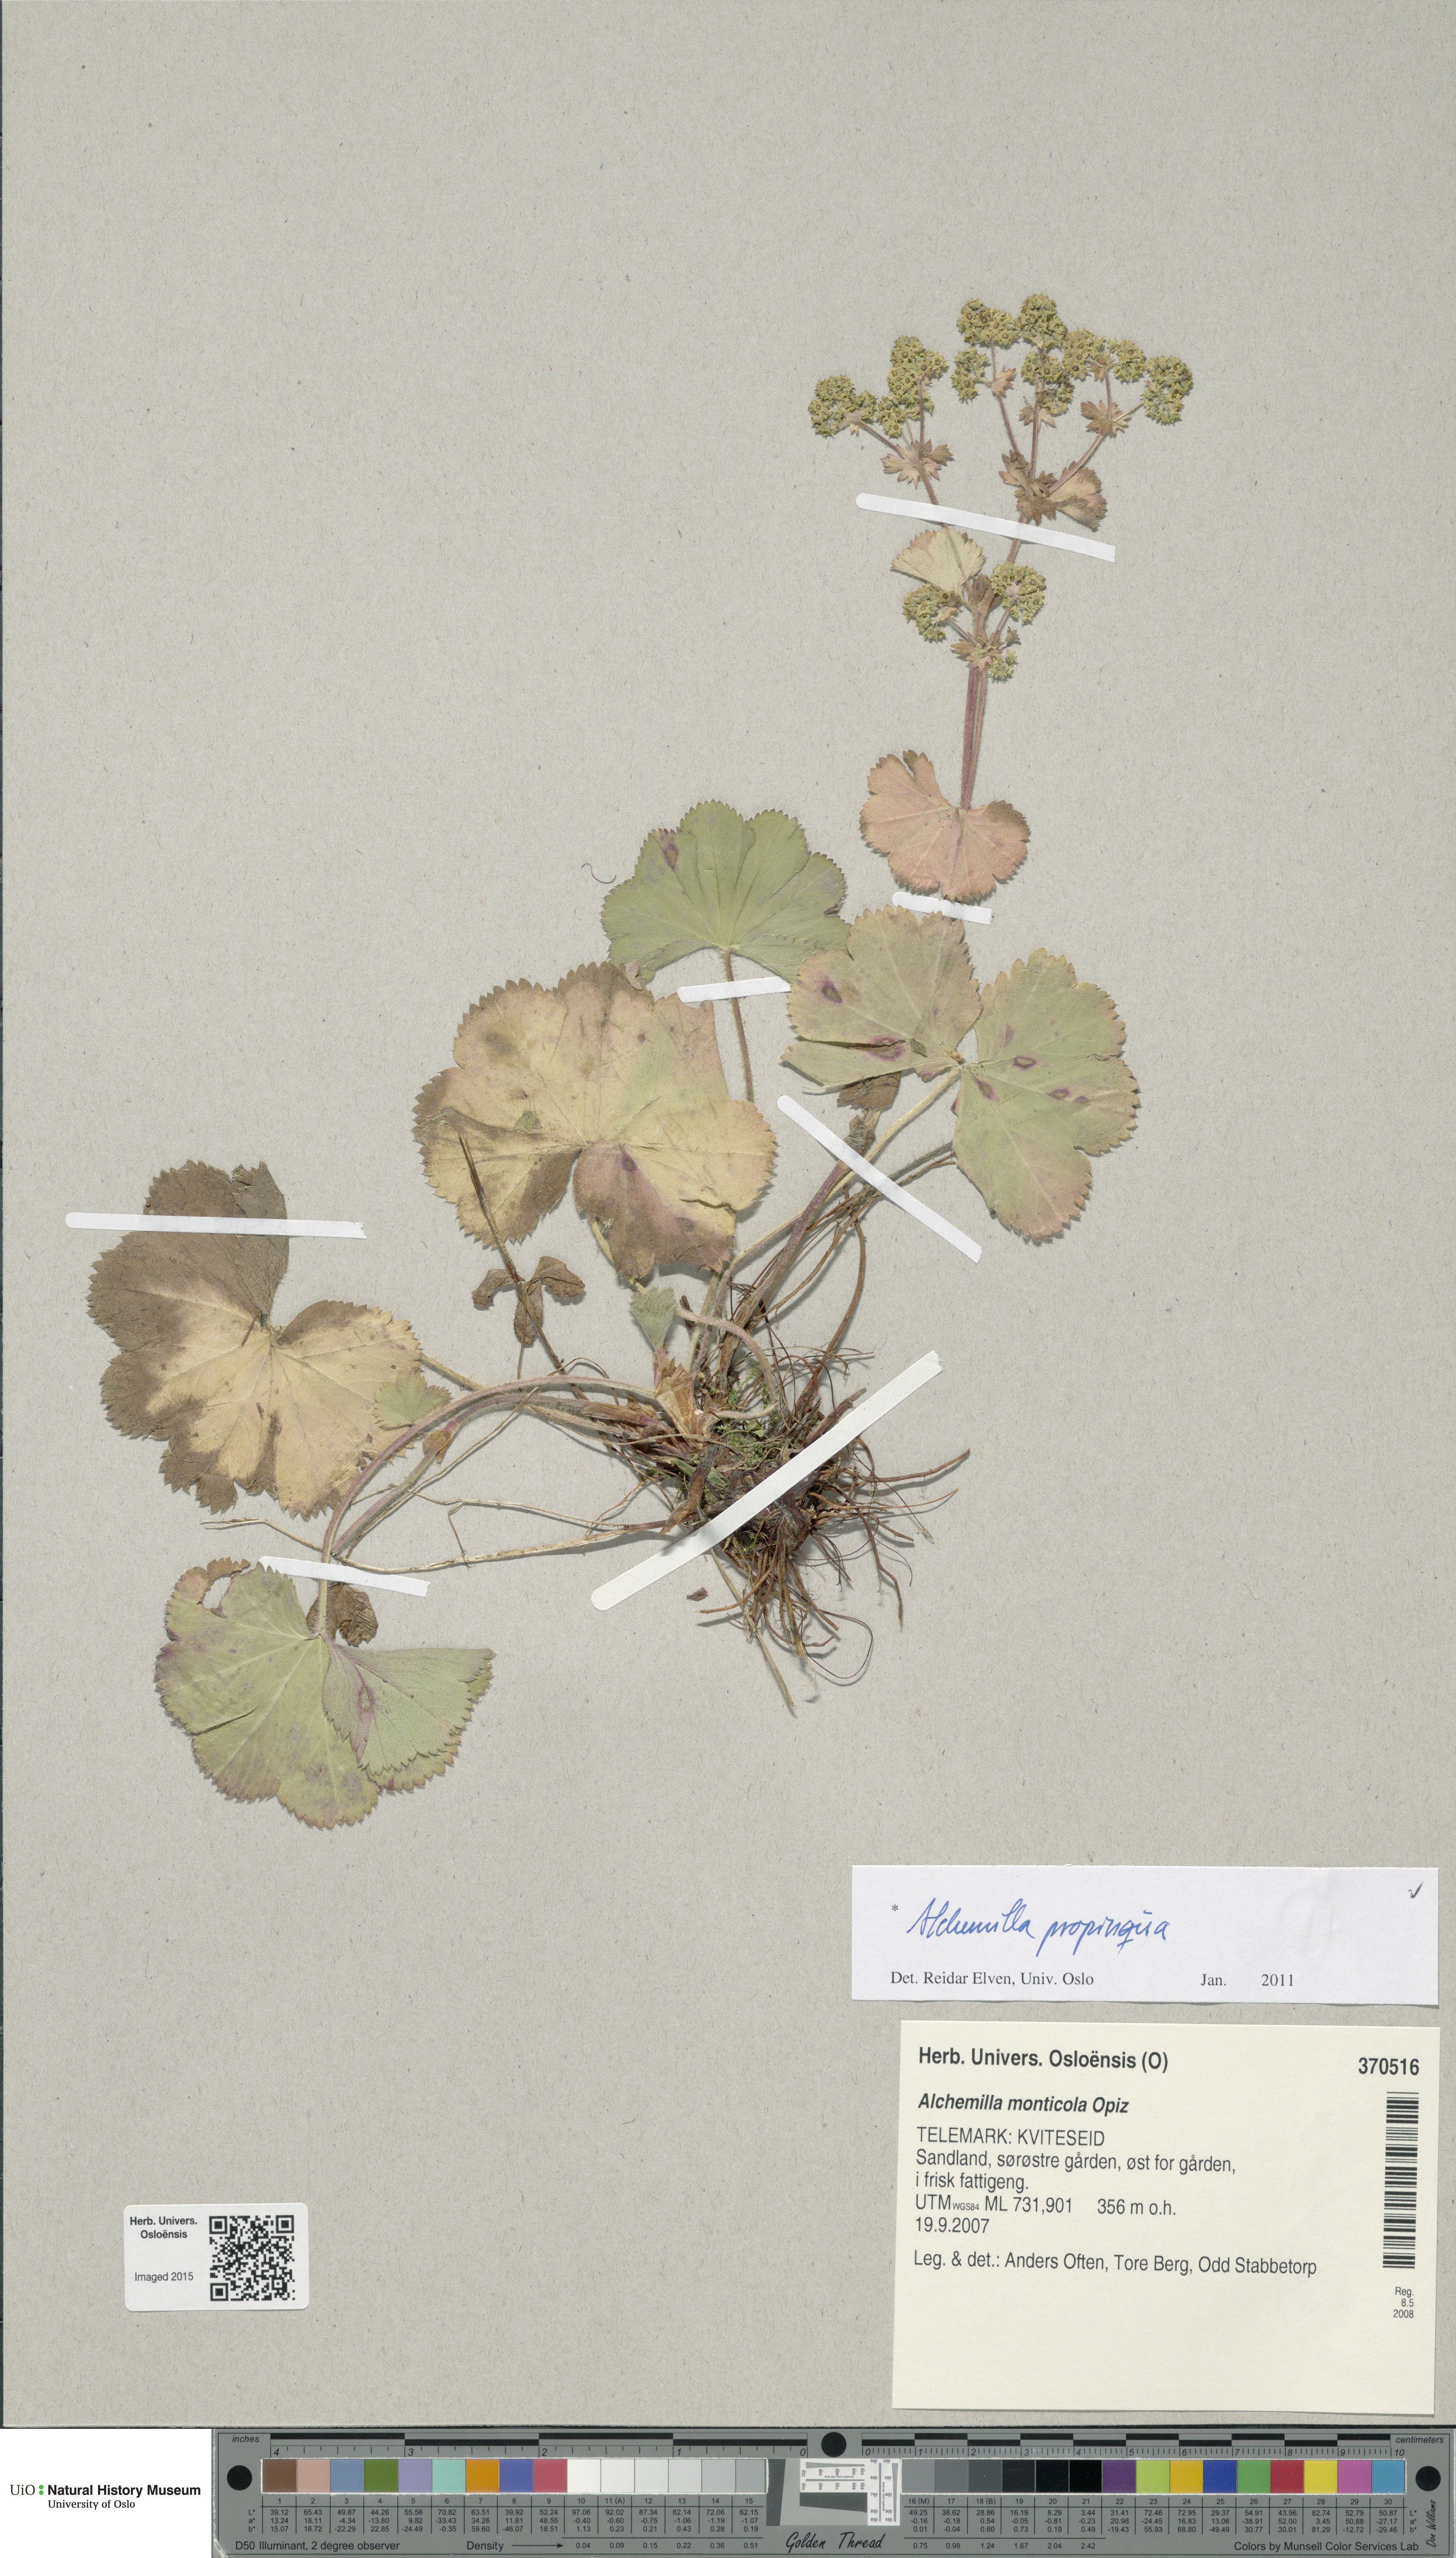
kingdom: Plantae
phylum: Tracheophyta
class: Magnoliopsida
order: Rosales
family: Rosaceae
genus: Alchemilla
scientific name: Alchemilla propinqua
